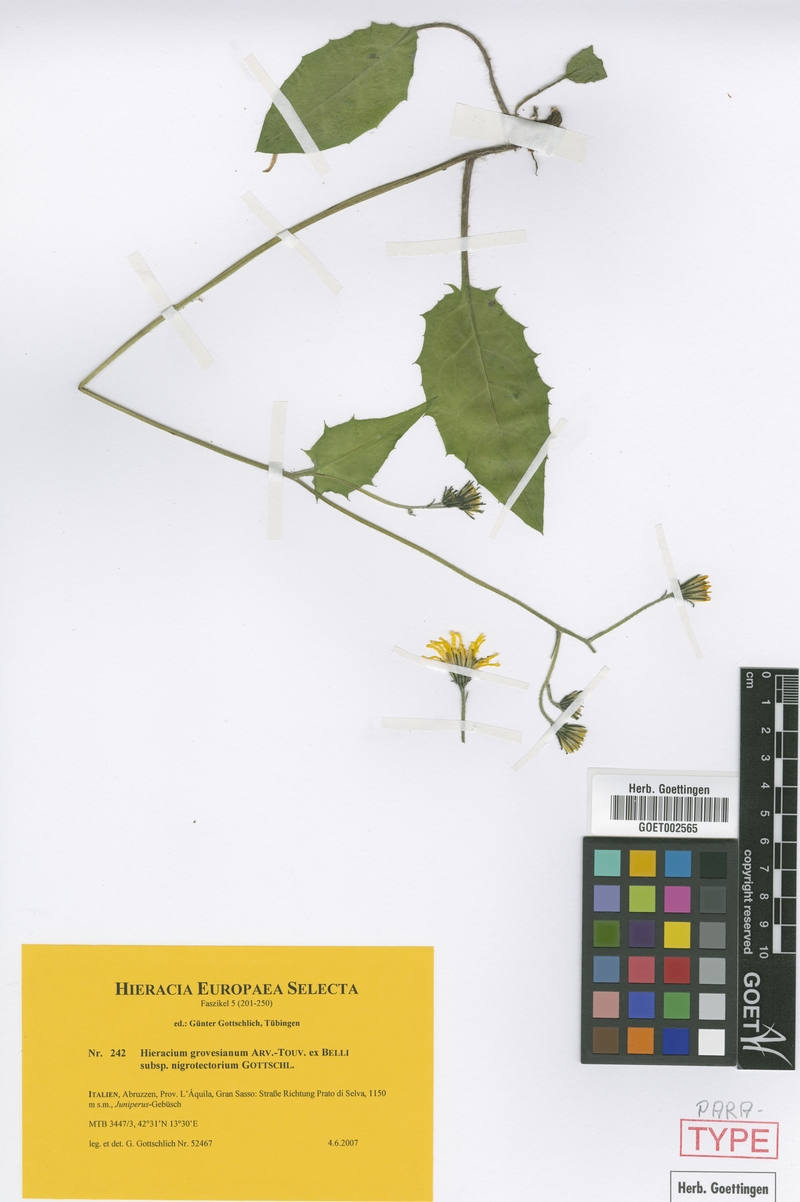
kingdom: Plantae
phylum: Tracheophyta
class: Magnoliopsida
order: Asterales
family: Asteraceae
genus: Hieracium
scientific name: Hieracium grovesianum
